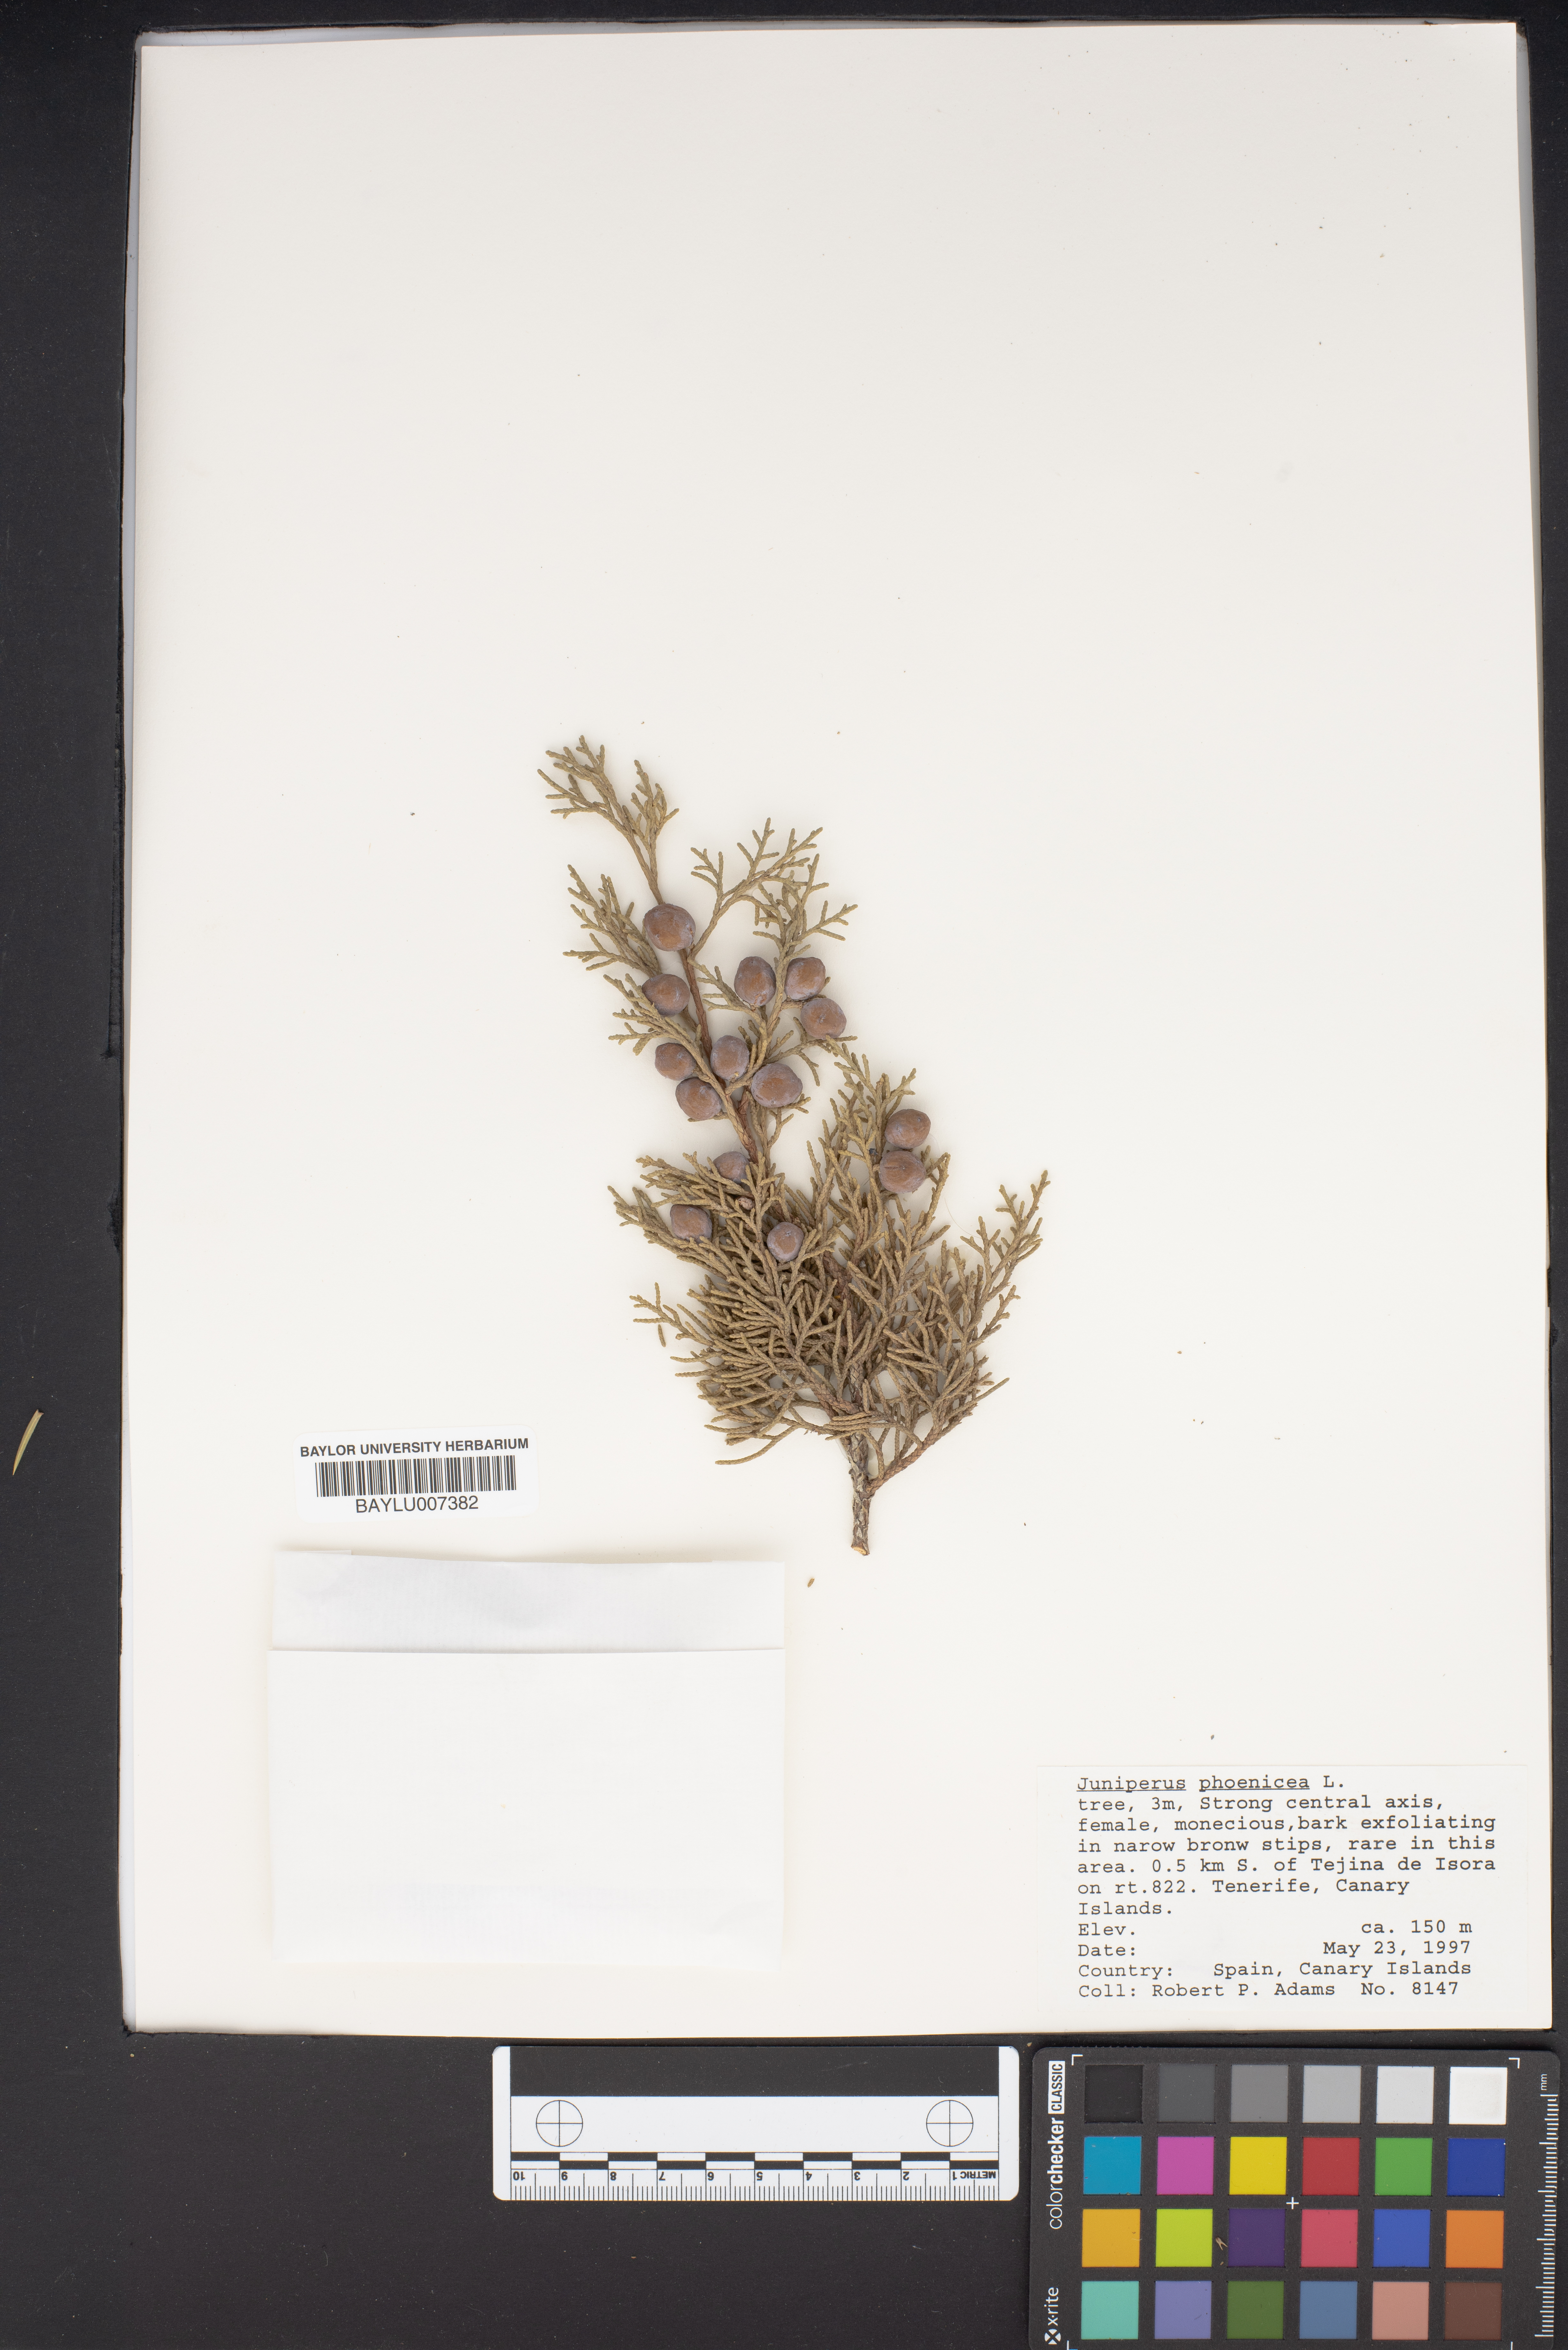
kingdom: Plantae
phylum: Tracheophyta
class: Pinopsida
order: Pinales
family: Cupressaceae
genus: Juniperus
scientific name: Juniperus phoenicea
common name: Phoenician juniper
